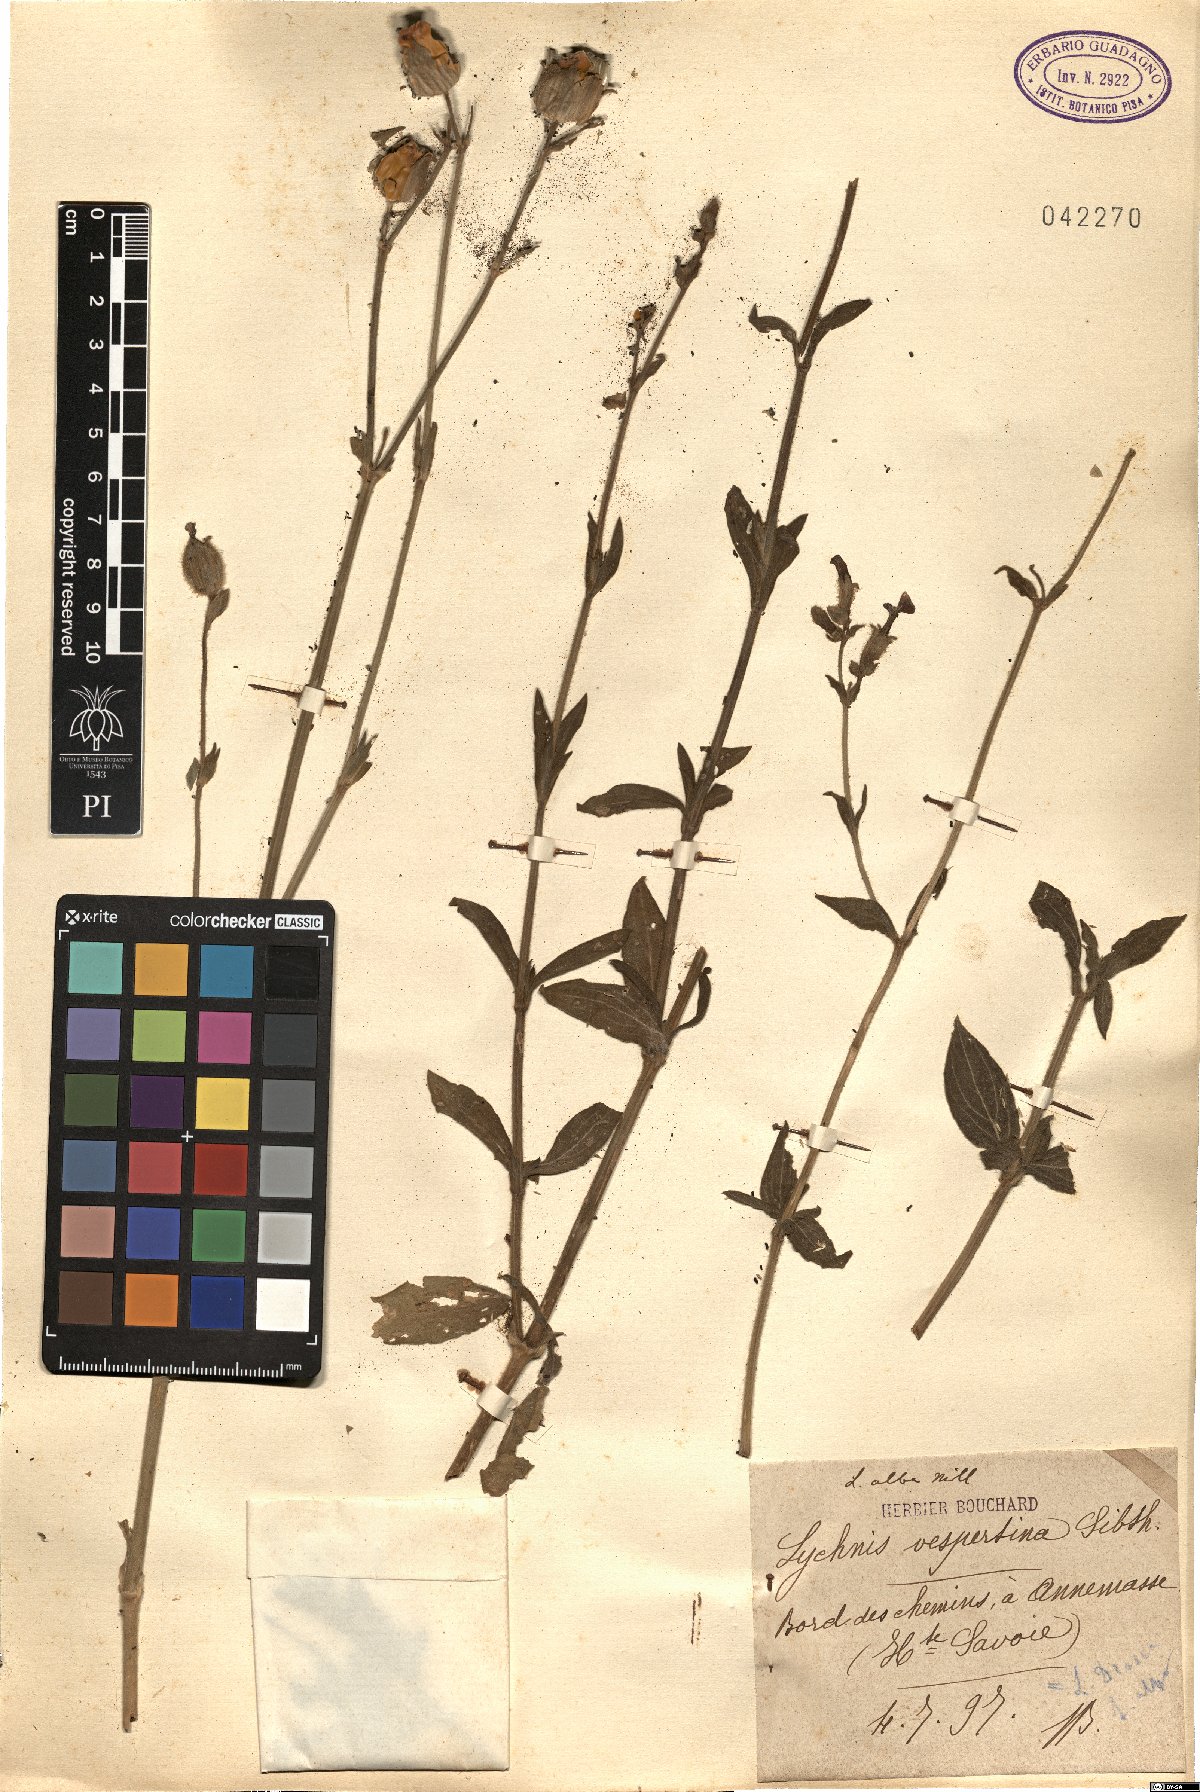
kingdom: Plantae
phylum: Tracheophyta
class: Magnoliopsida
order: Caryophyllales
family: Caryophyllaceae
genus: Silene
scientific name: Silene
